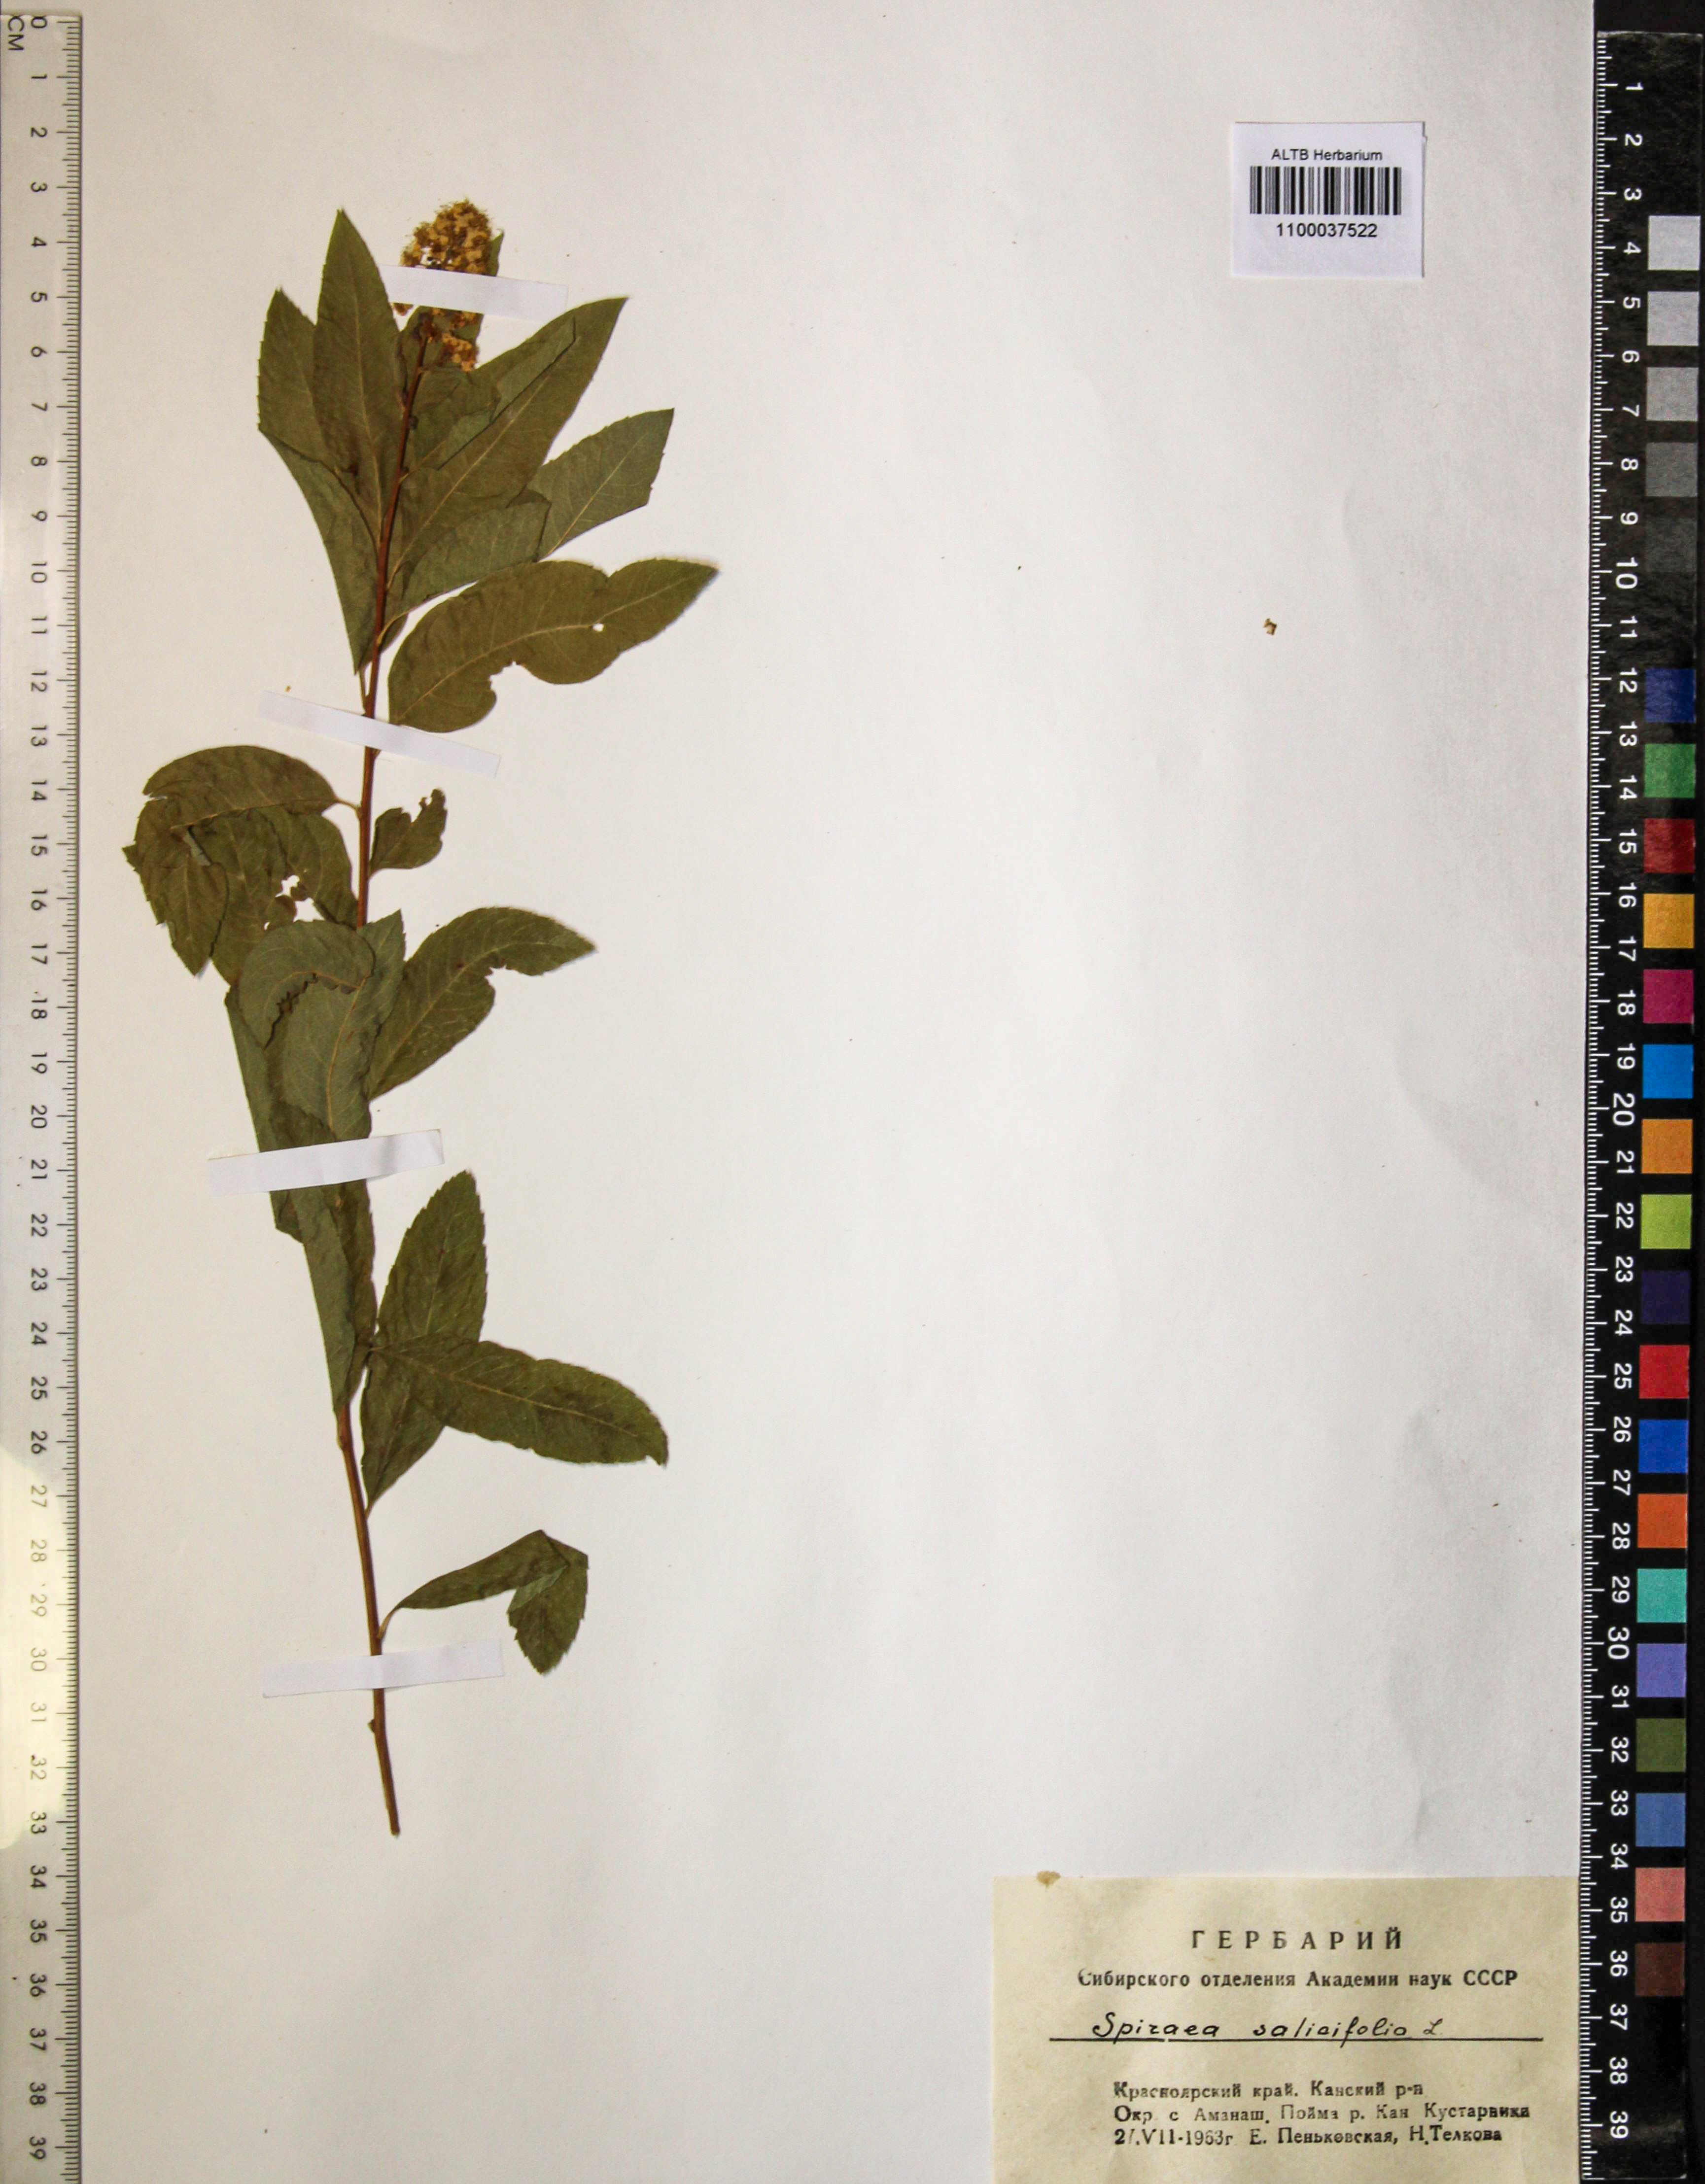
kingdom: Plantae
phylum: Tracheophyta
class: Magnoliopsida
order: Rosales
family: Rosaceae
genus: Spiraea
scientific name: Spiraea salicifolia
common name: Bridewort
